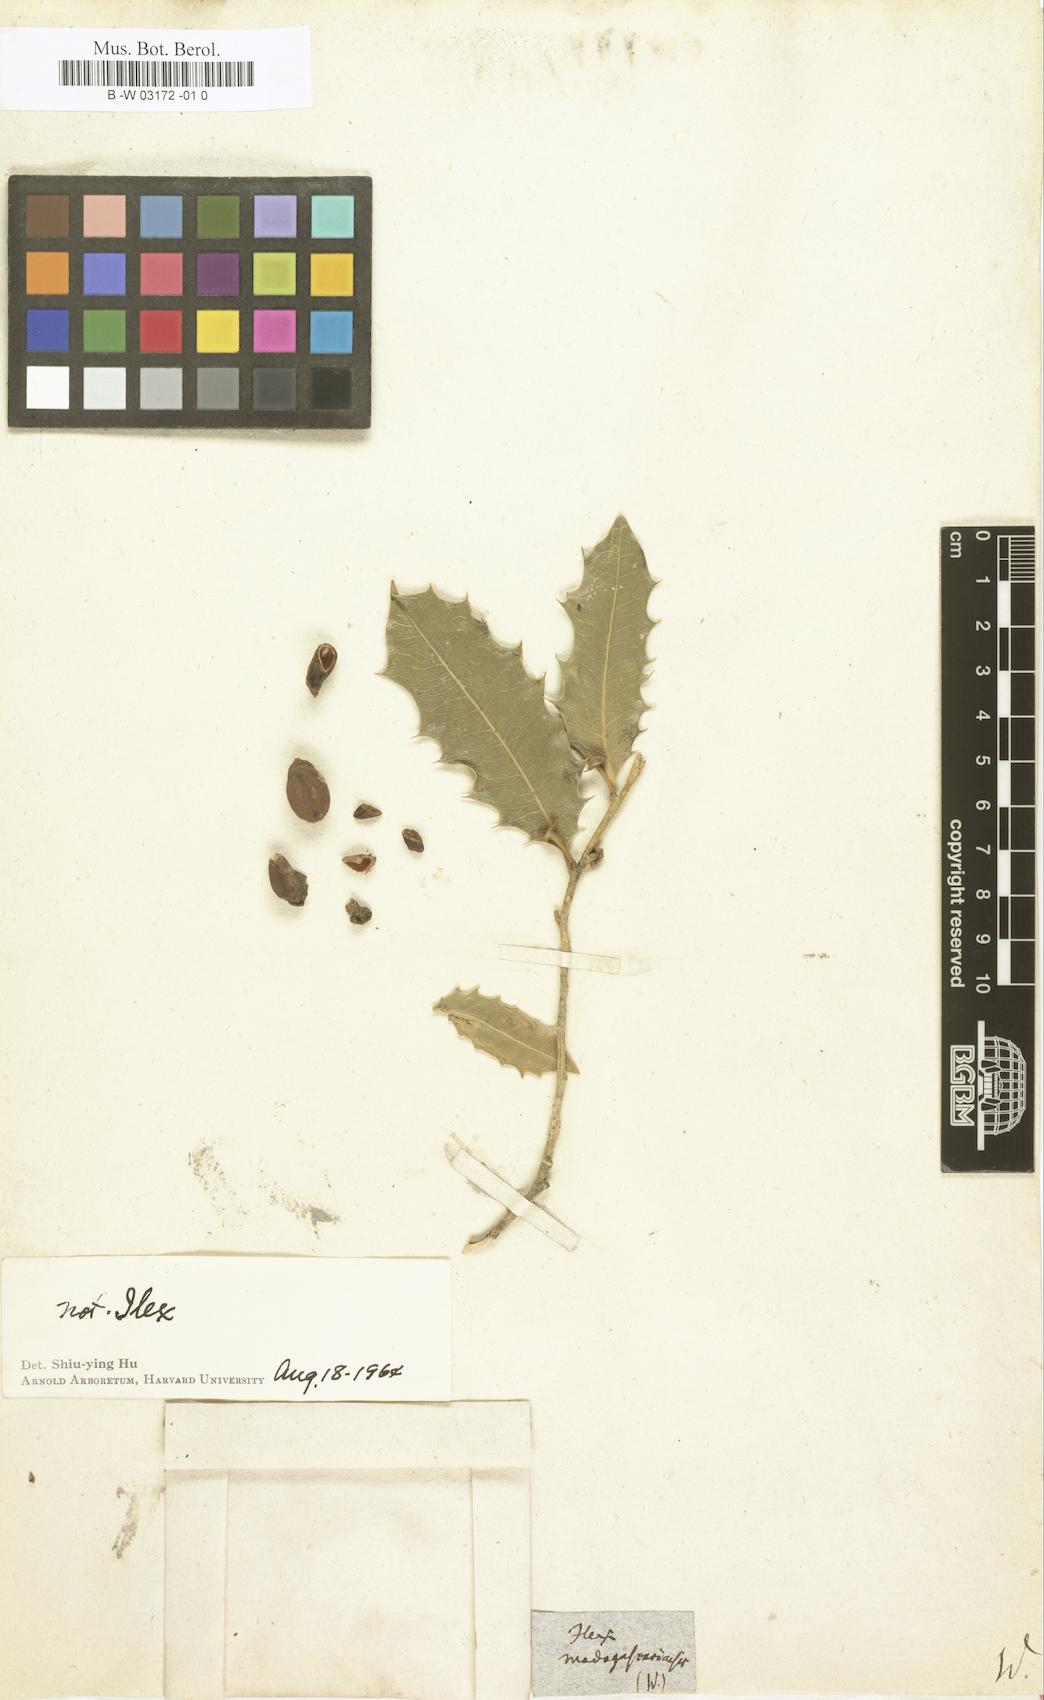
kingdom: Plantae
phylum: Tracheophyta
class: Magnoliopsida
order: Malpighiales
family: Putranjivaceae
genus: Drypetes
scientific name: Drypetes madagascariensis
